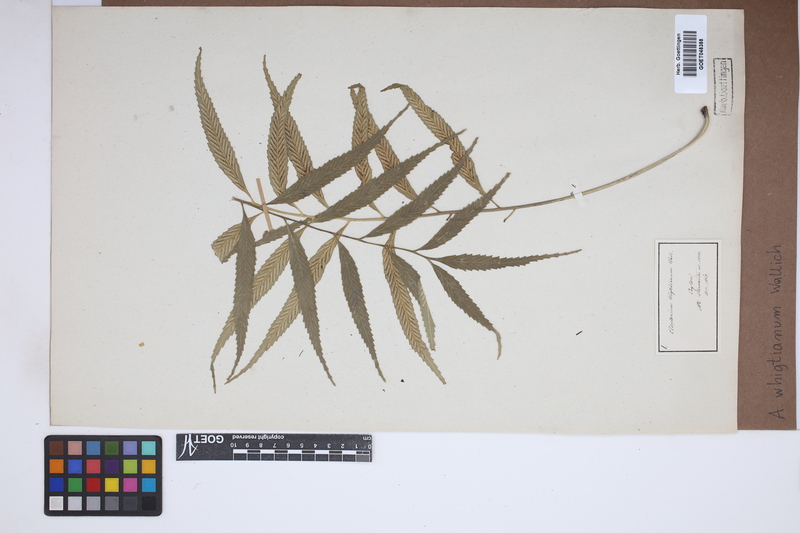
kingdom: Plantae
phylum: Tracheophyta
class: Polypodiopsida
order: Polypodiales
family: Aspleniaceae
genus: Asplenium
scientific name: Asplenium serricula
